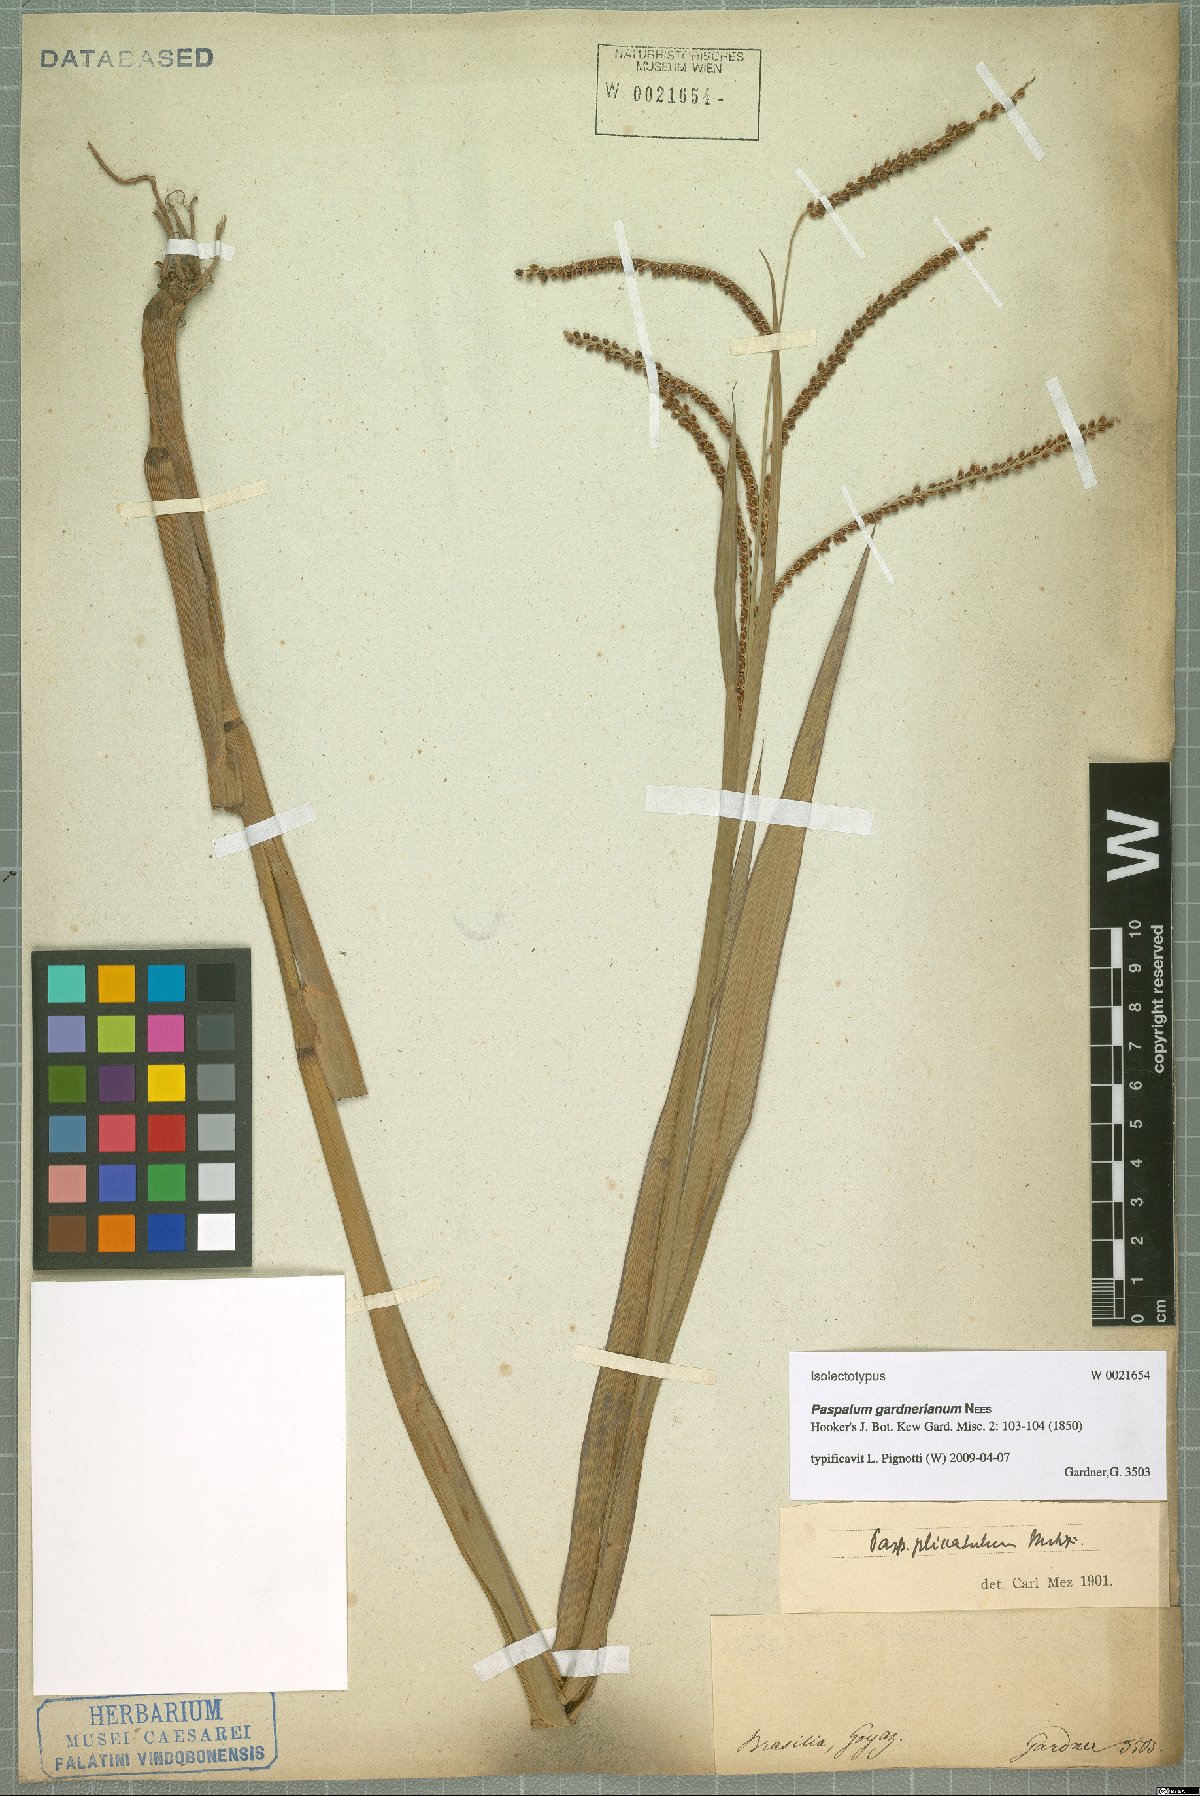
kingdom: Plantae
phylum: Tracheophyta
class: Liliopsida
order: Poales
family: Poaceae
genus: Paspalum
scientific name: Paspalum gardnerianum
